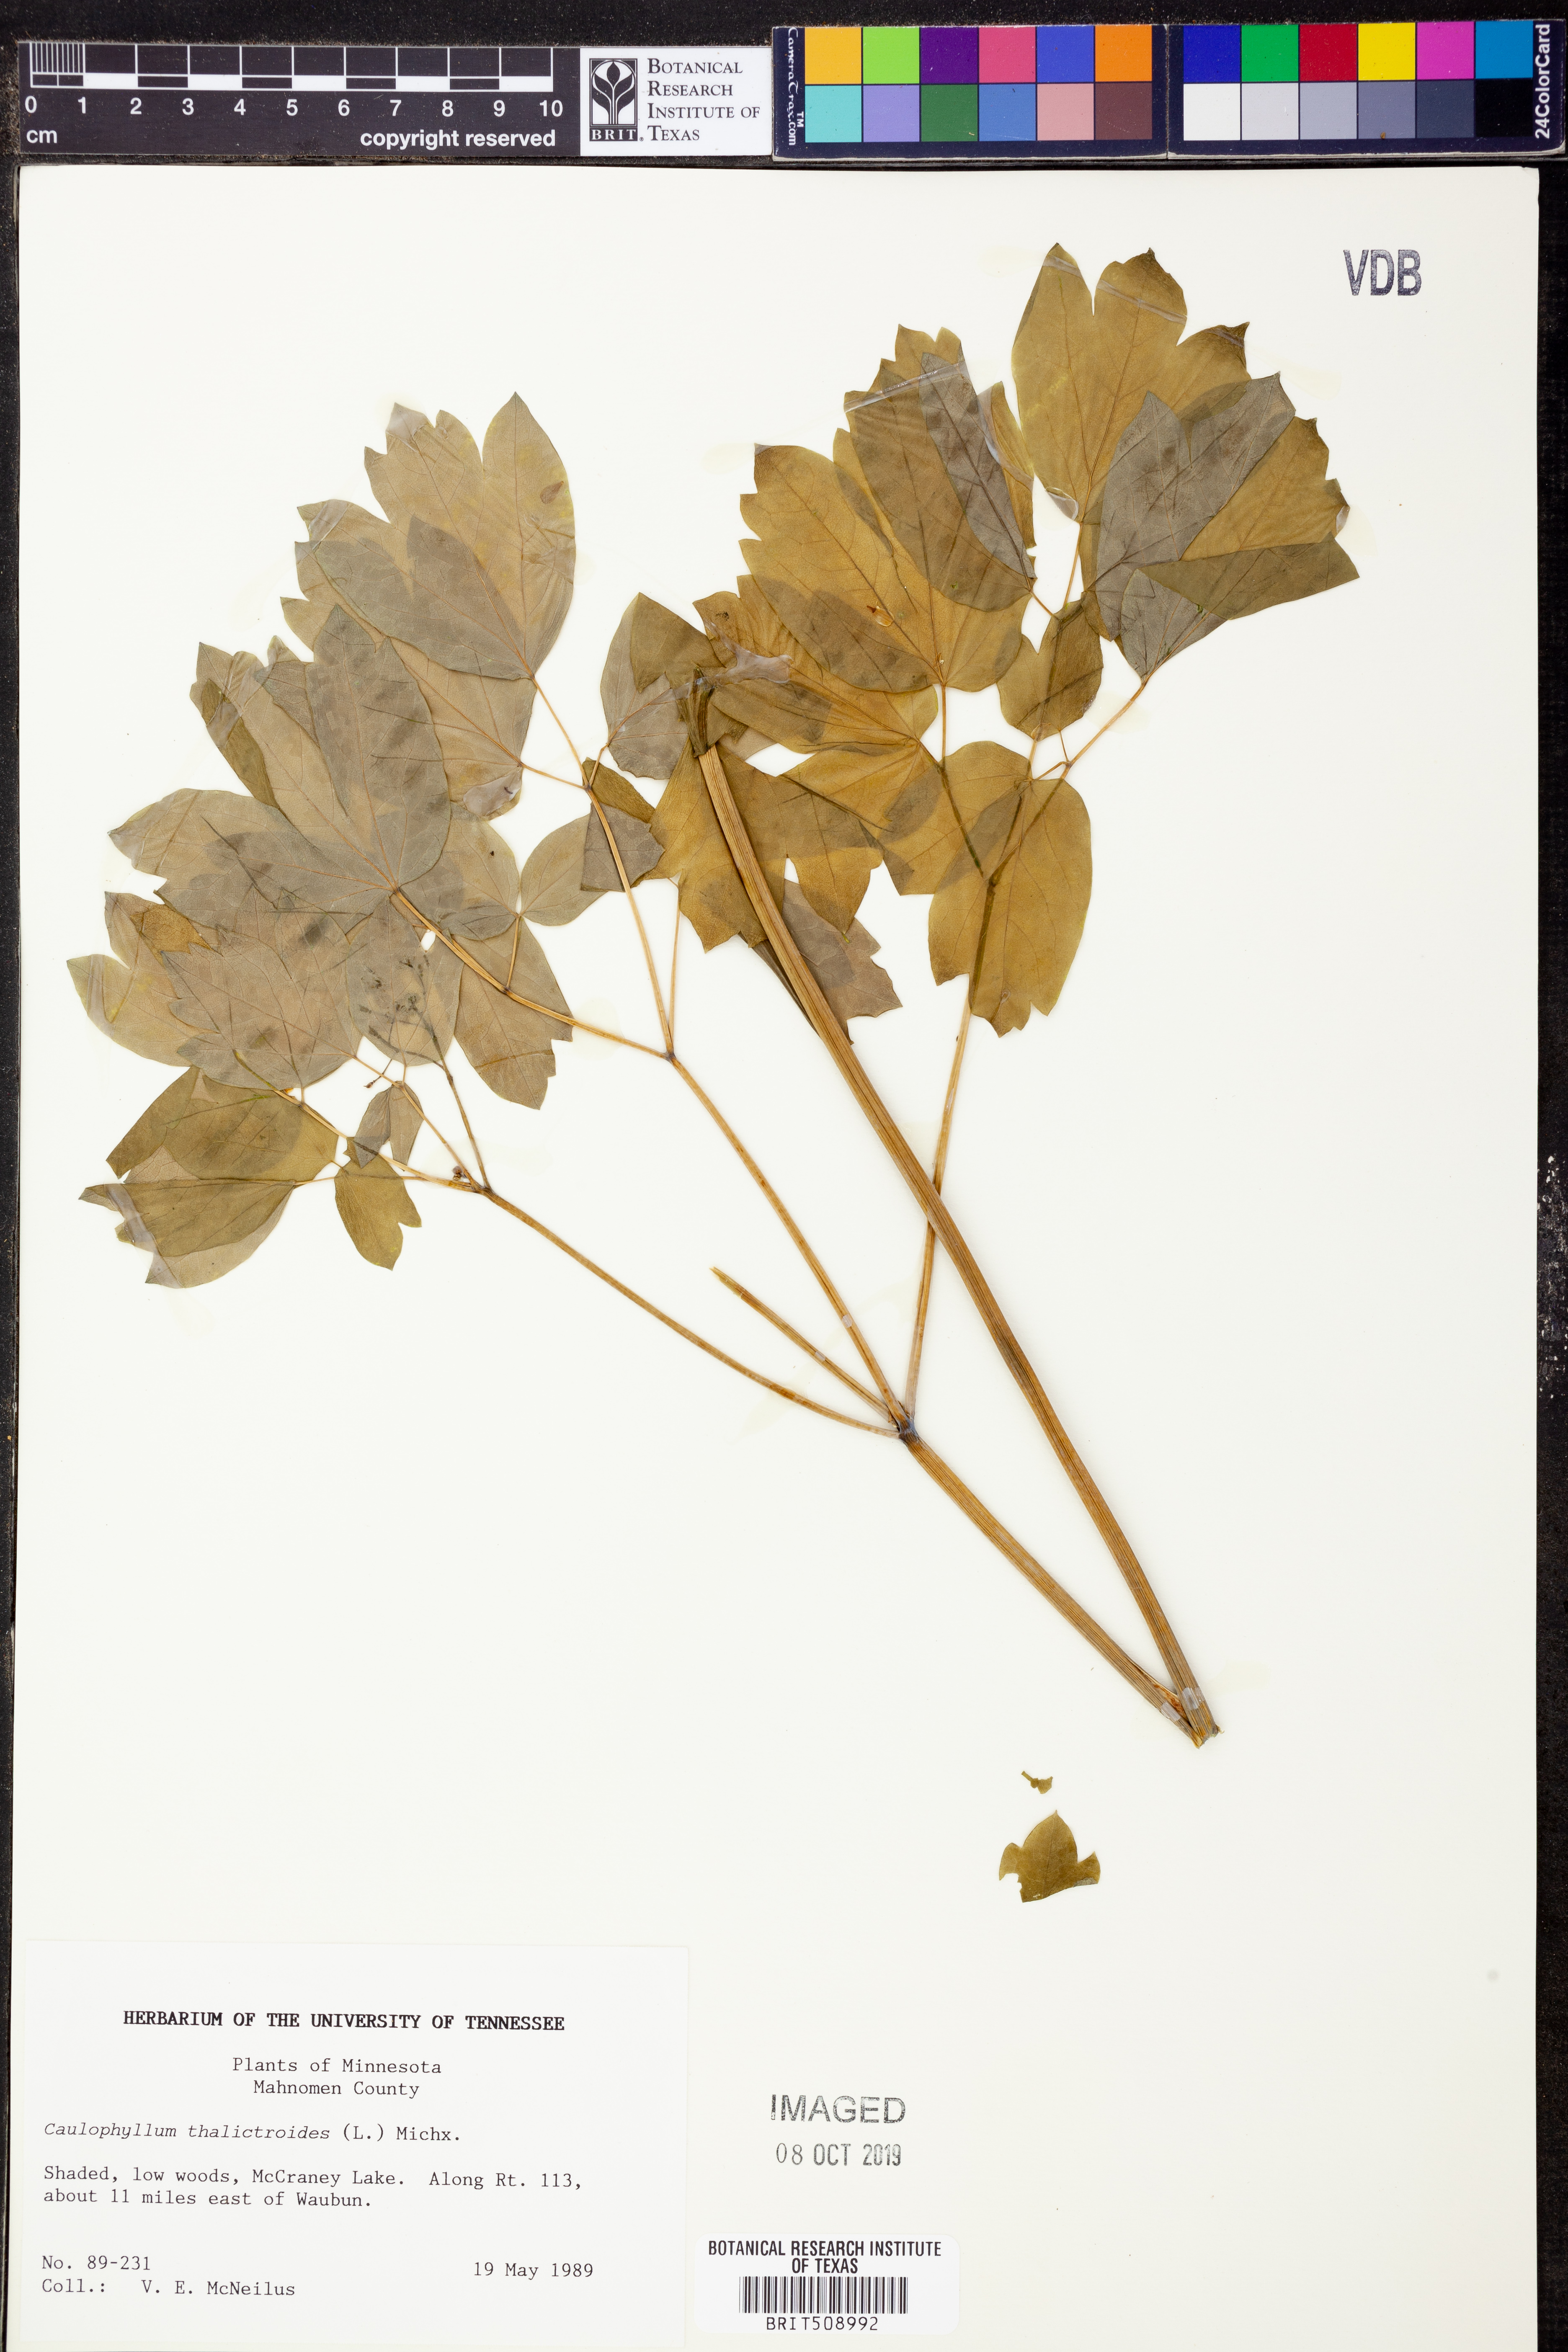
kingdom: Plantae
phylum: Tracheophyta
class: Magnoliopsida
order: Ranunculales
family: Berberidaceae
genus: Caulophyllum
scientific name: Caulophyllum thalictroides
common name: Blue cohosh
